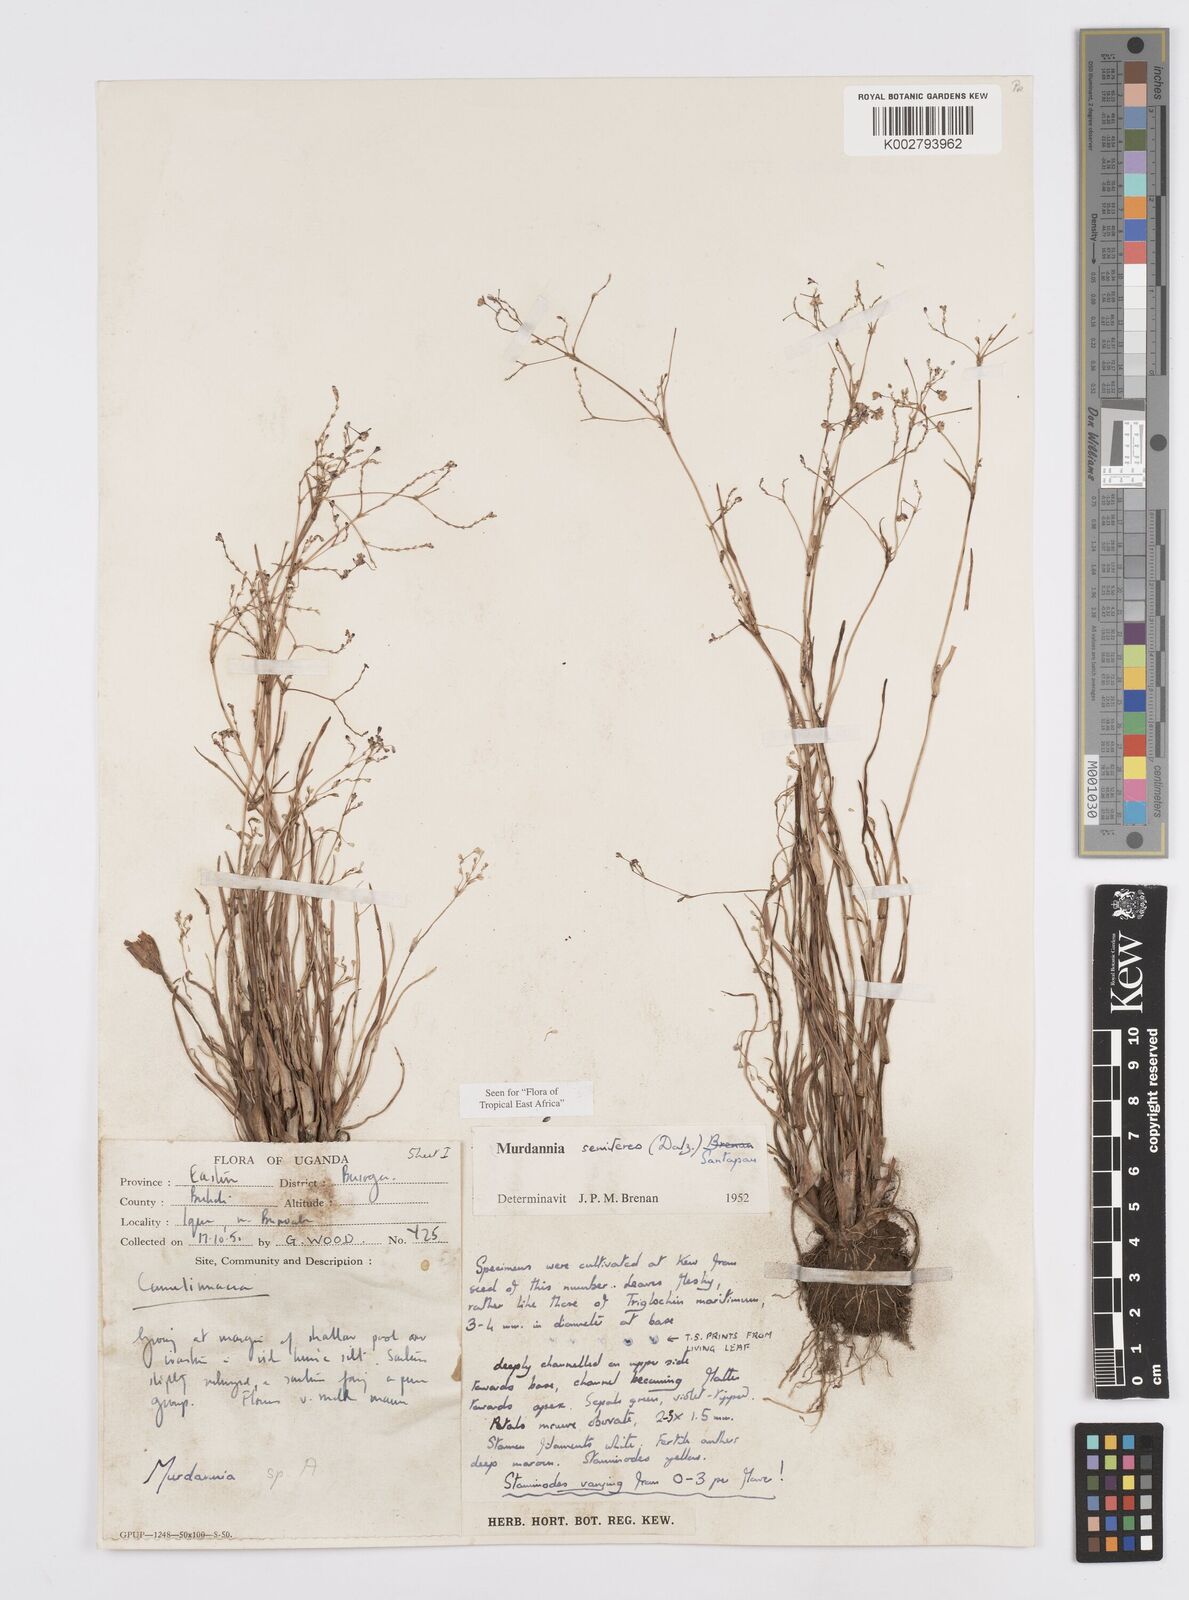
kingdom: Plantae
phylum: Tracheophyta
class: Liliopsida
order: Commelinales
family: Commelinaceae
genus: Murdannia
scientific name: Murdannia semiteres
